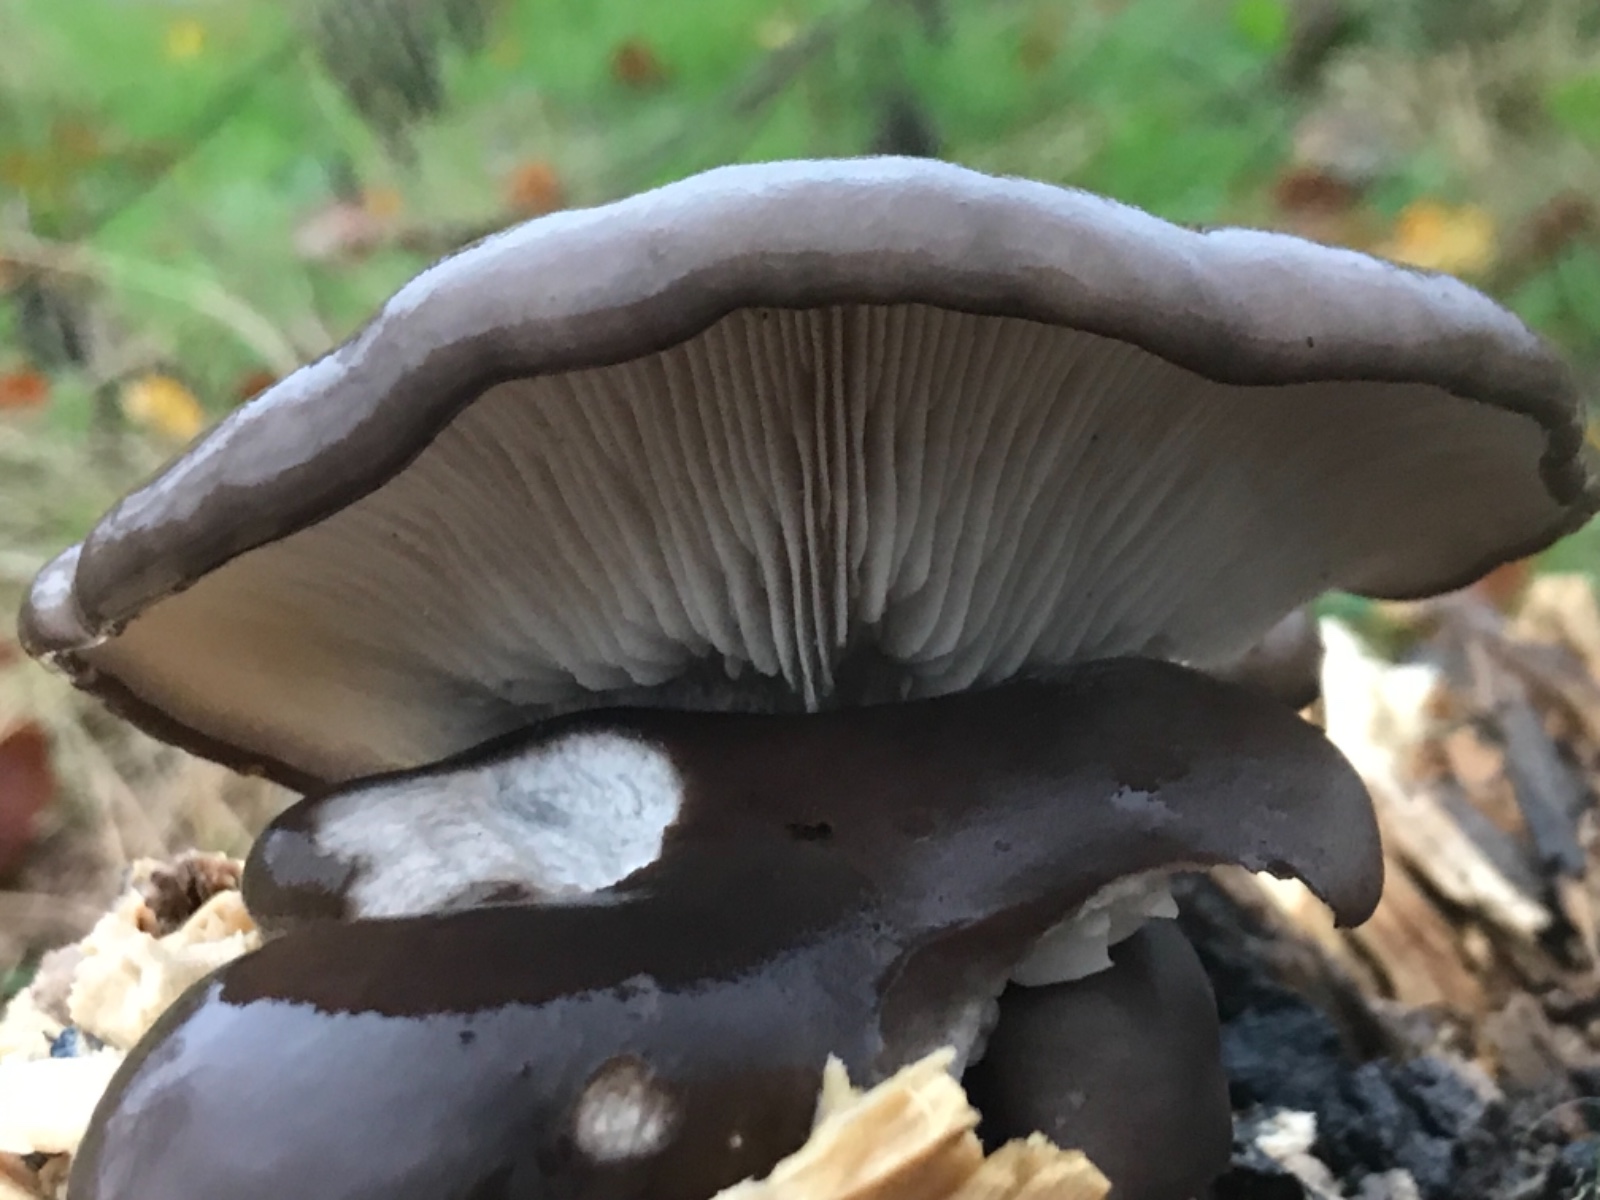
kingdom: Fungi
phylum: Basidiomycota
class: Agaricomycetes
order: Agaricales
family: Pleurotaceae
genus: Pleurotus
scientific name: Pleurotus ostreatus
